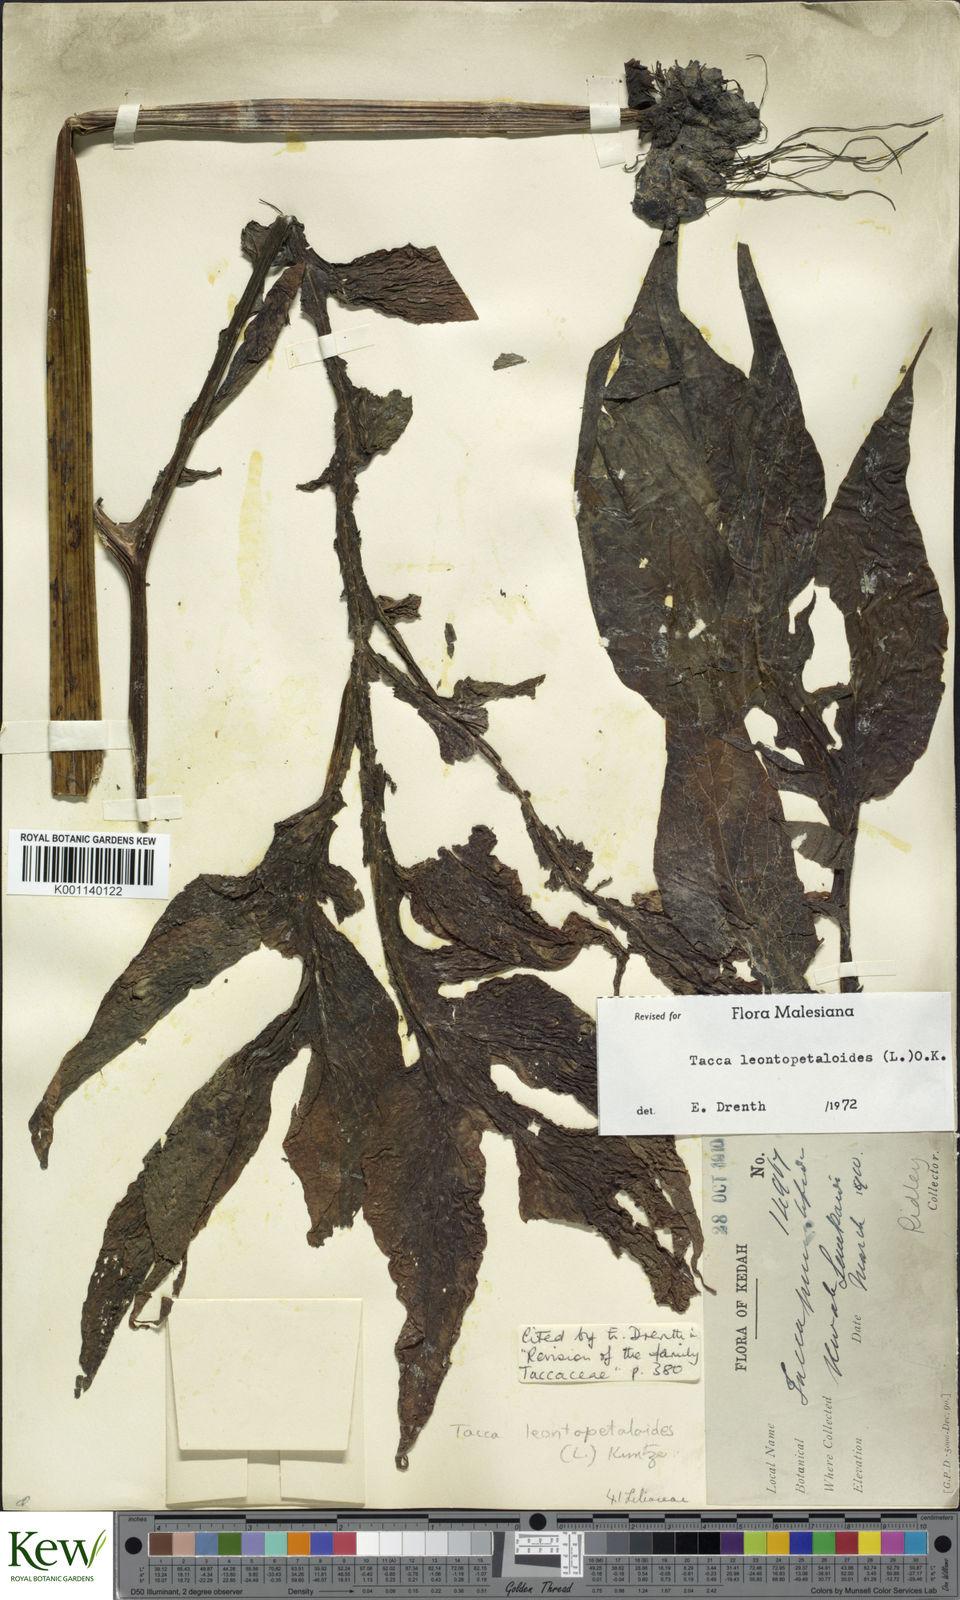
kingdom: Plantae
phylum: Tracheophyta
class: Liliopsida
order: Dioscoreales
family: Dioscoreaceae
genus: Tacca
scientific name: Tacca leontopetaloides
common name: Arrowroot
